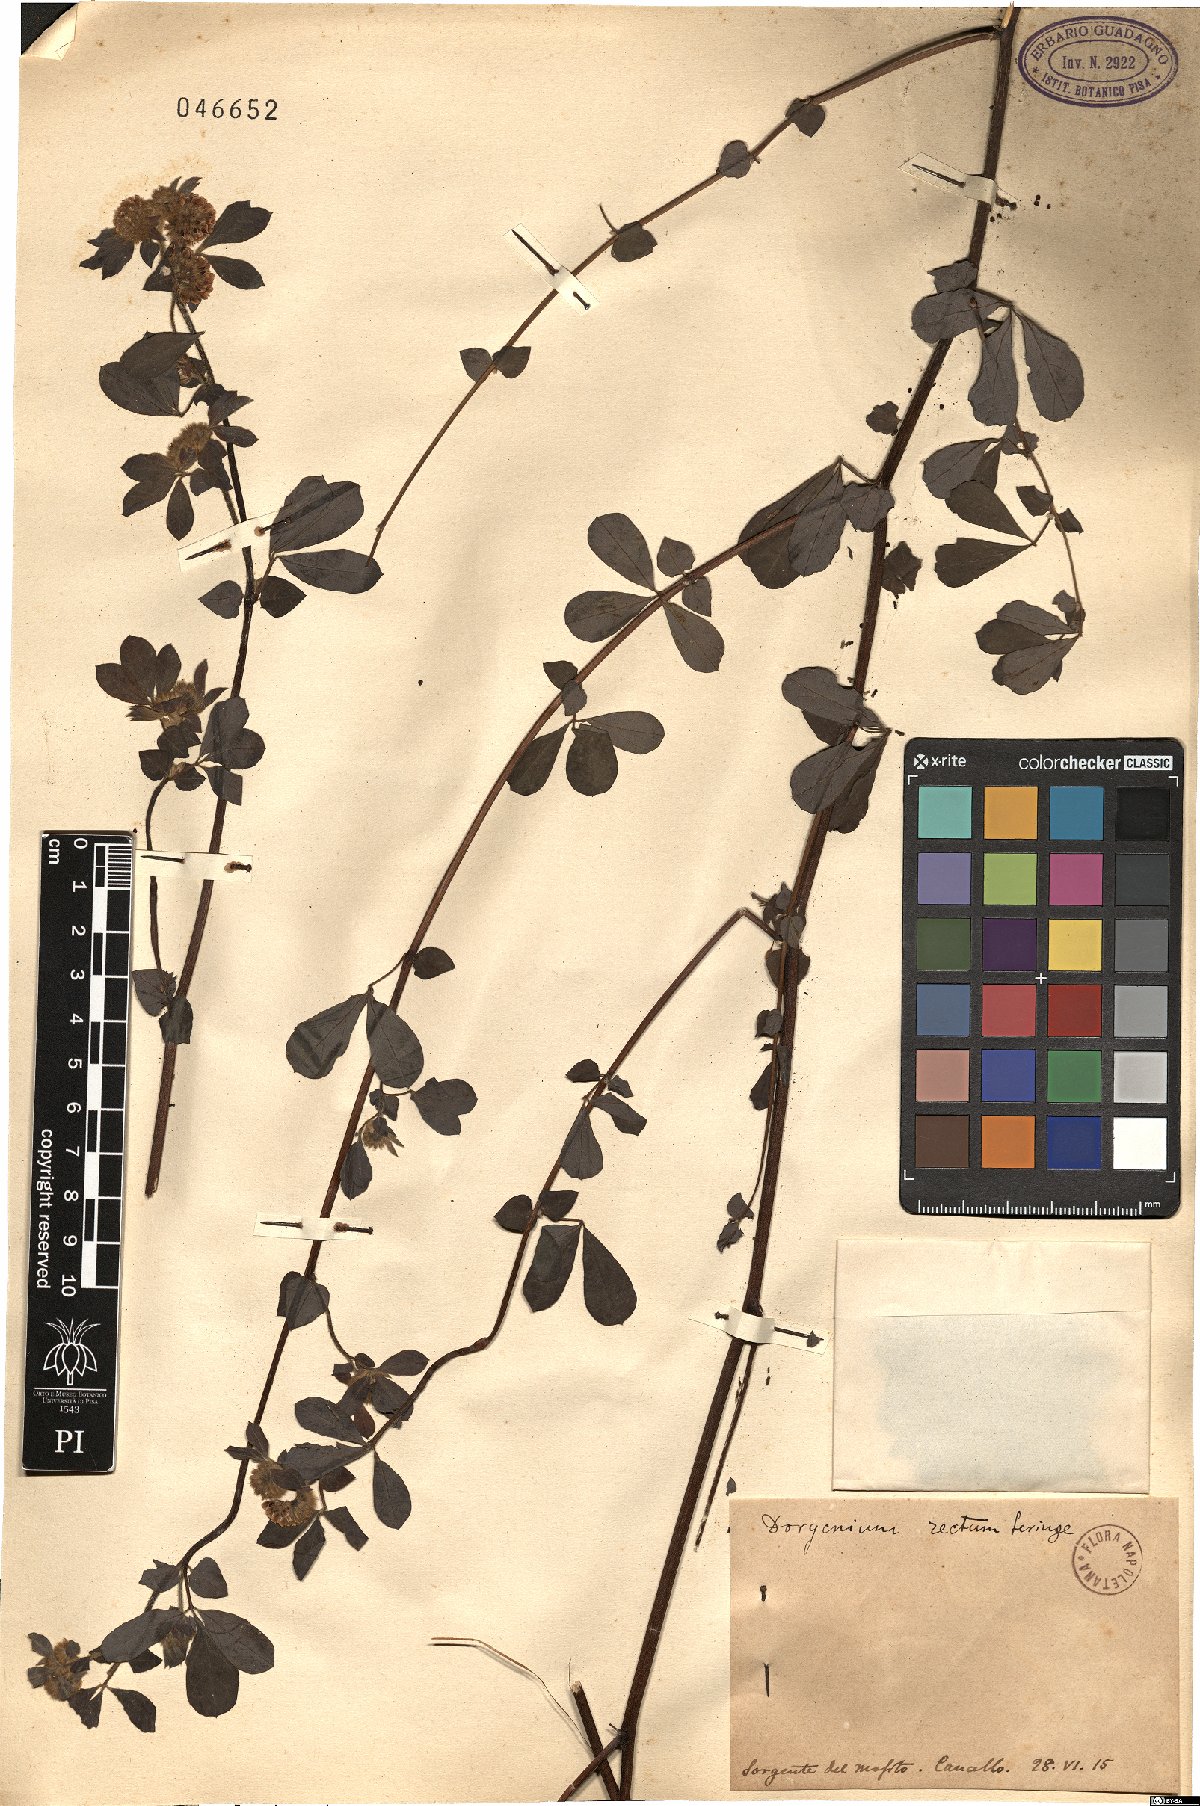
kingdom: Plantae
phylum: Tracheophyta
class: Magnoliopsida
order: Fabales
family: Fabaceae
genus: Lotus
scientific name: Lotus rectus
